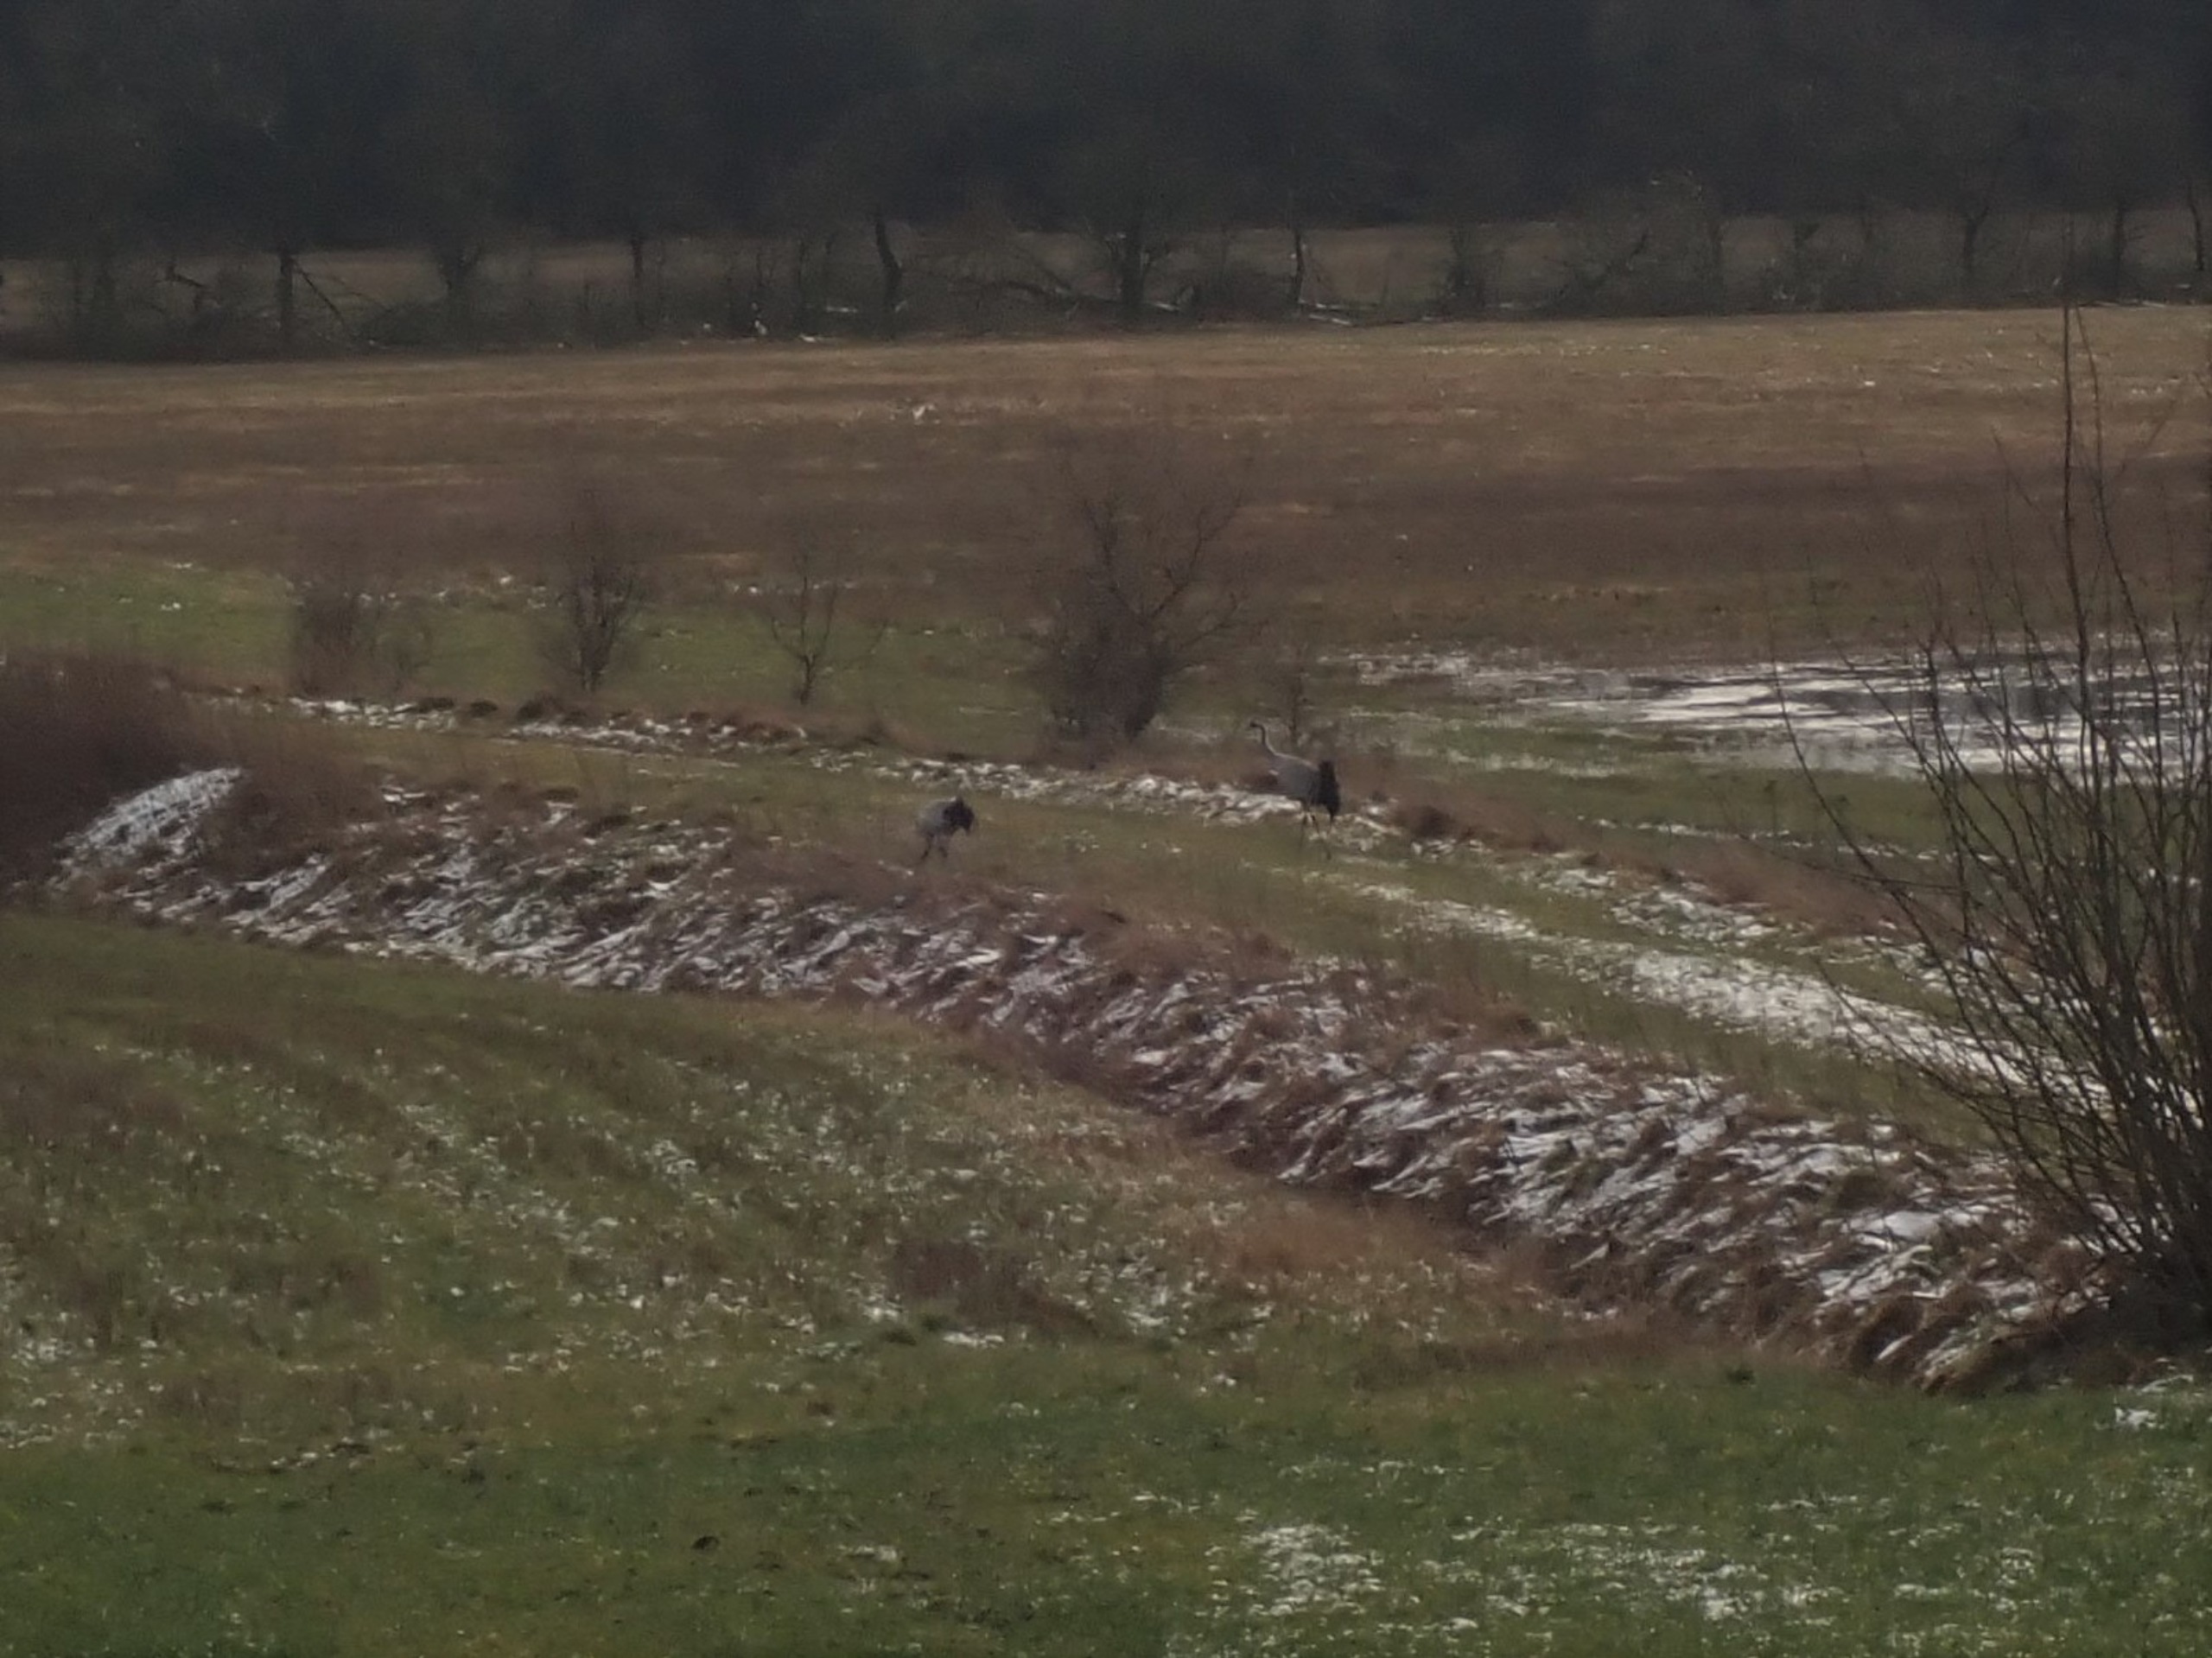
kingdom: Animalia
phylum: Chordata
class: Aves
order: Gruiformes
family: Gruidae
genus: Grus
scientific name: Grus grus
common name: Trane
